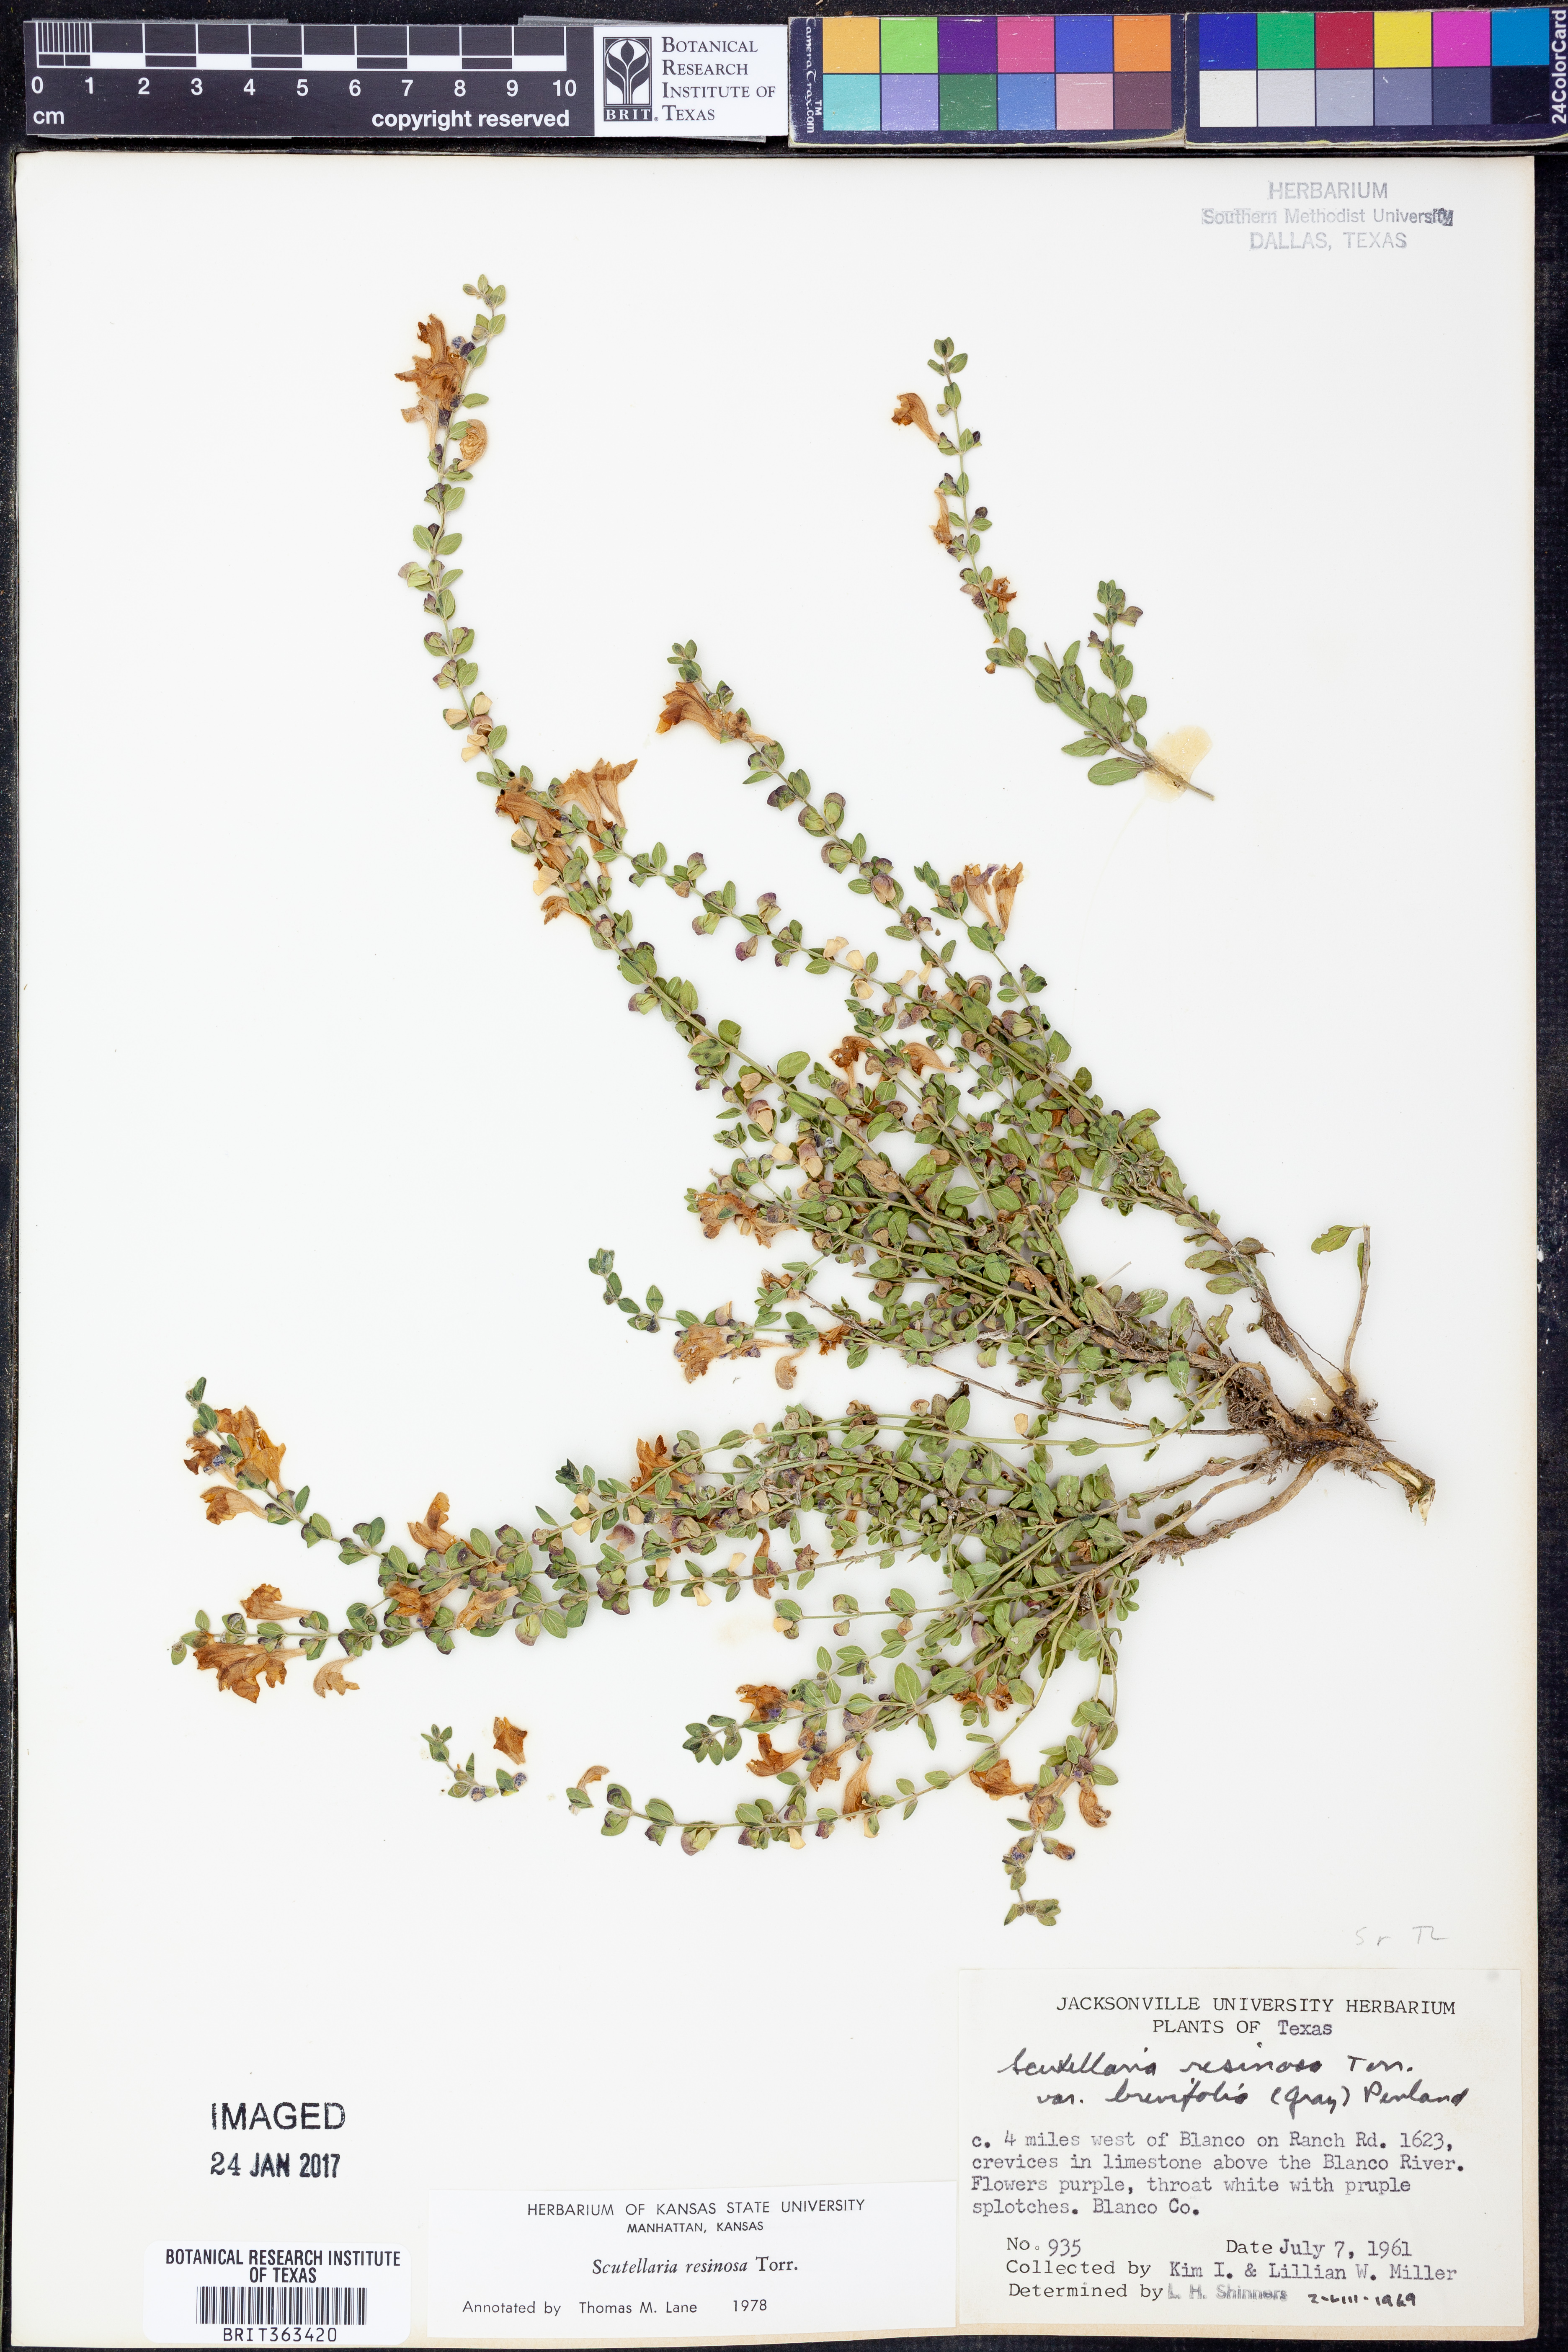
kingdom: Plantae
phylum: Tracheophyta
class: Magnoliopsida
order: Lamiales
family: Lamiaceae
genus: Scutellaria
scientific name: Scutellaria resinosa
